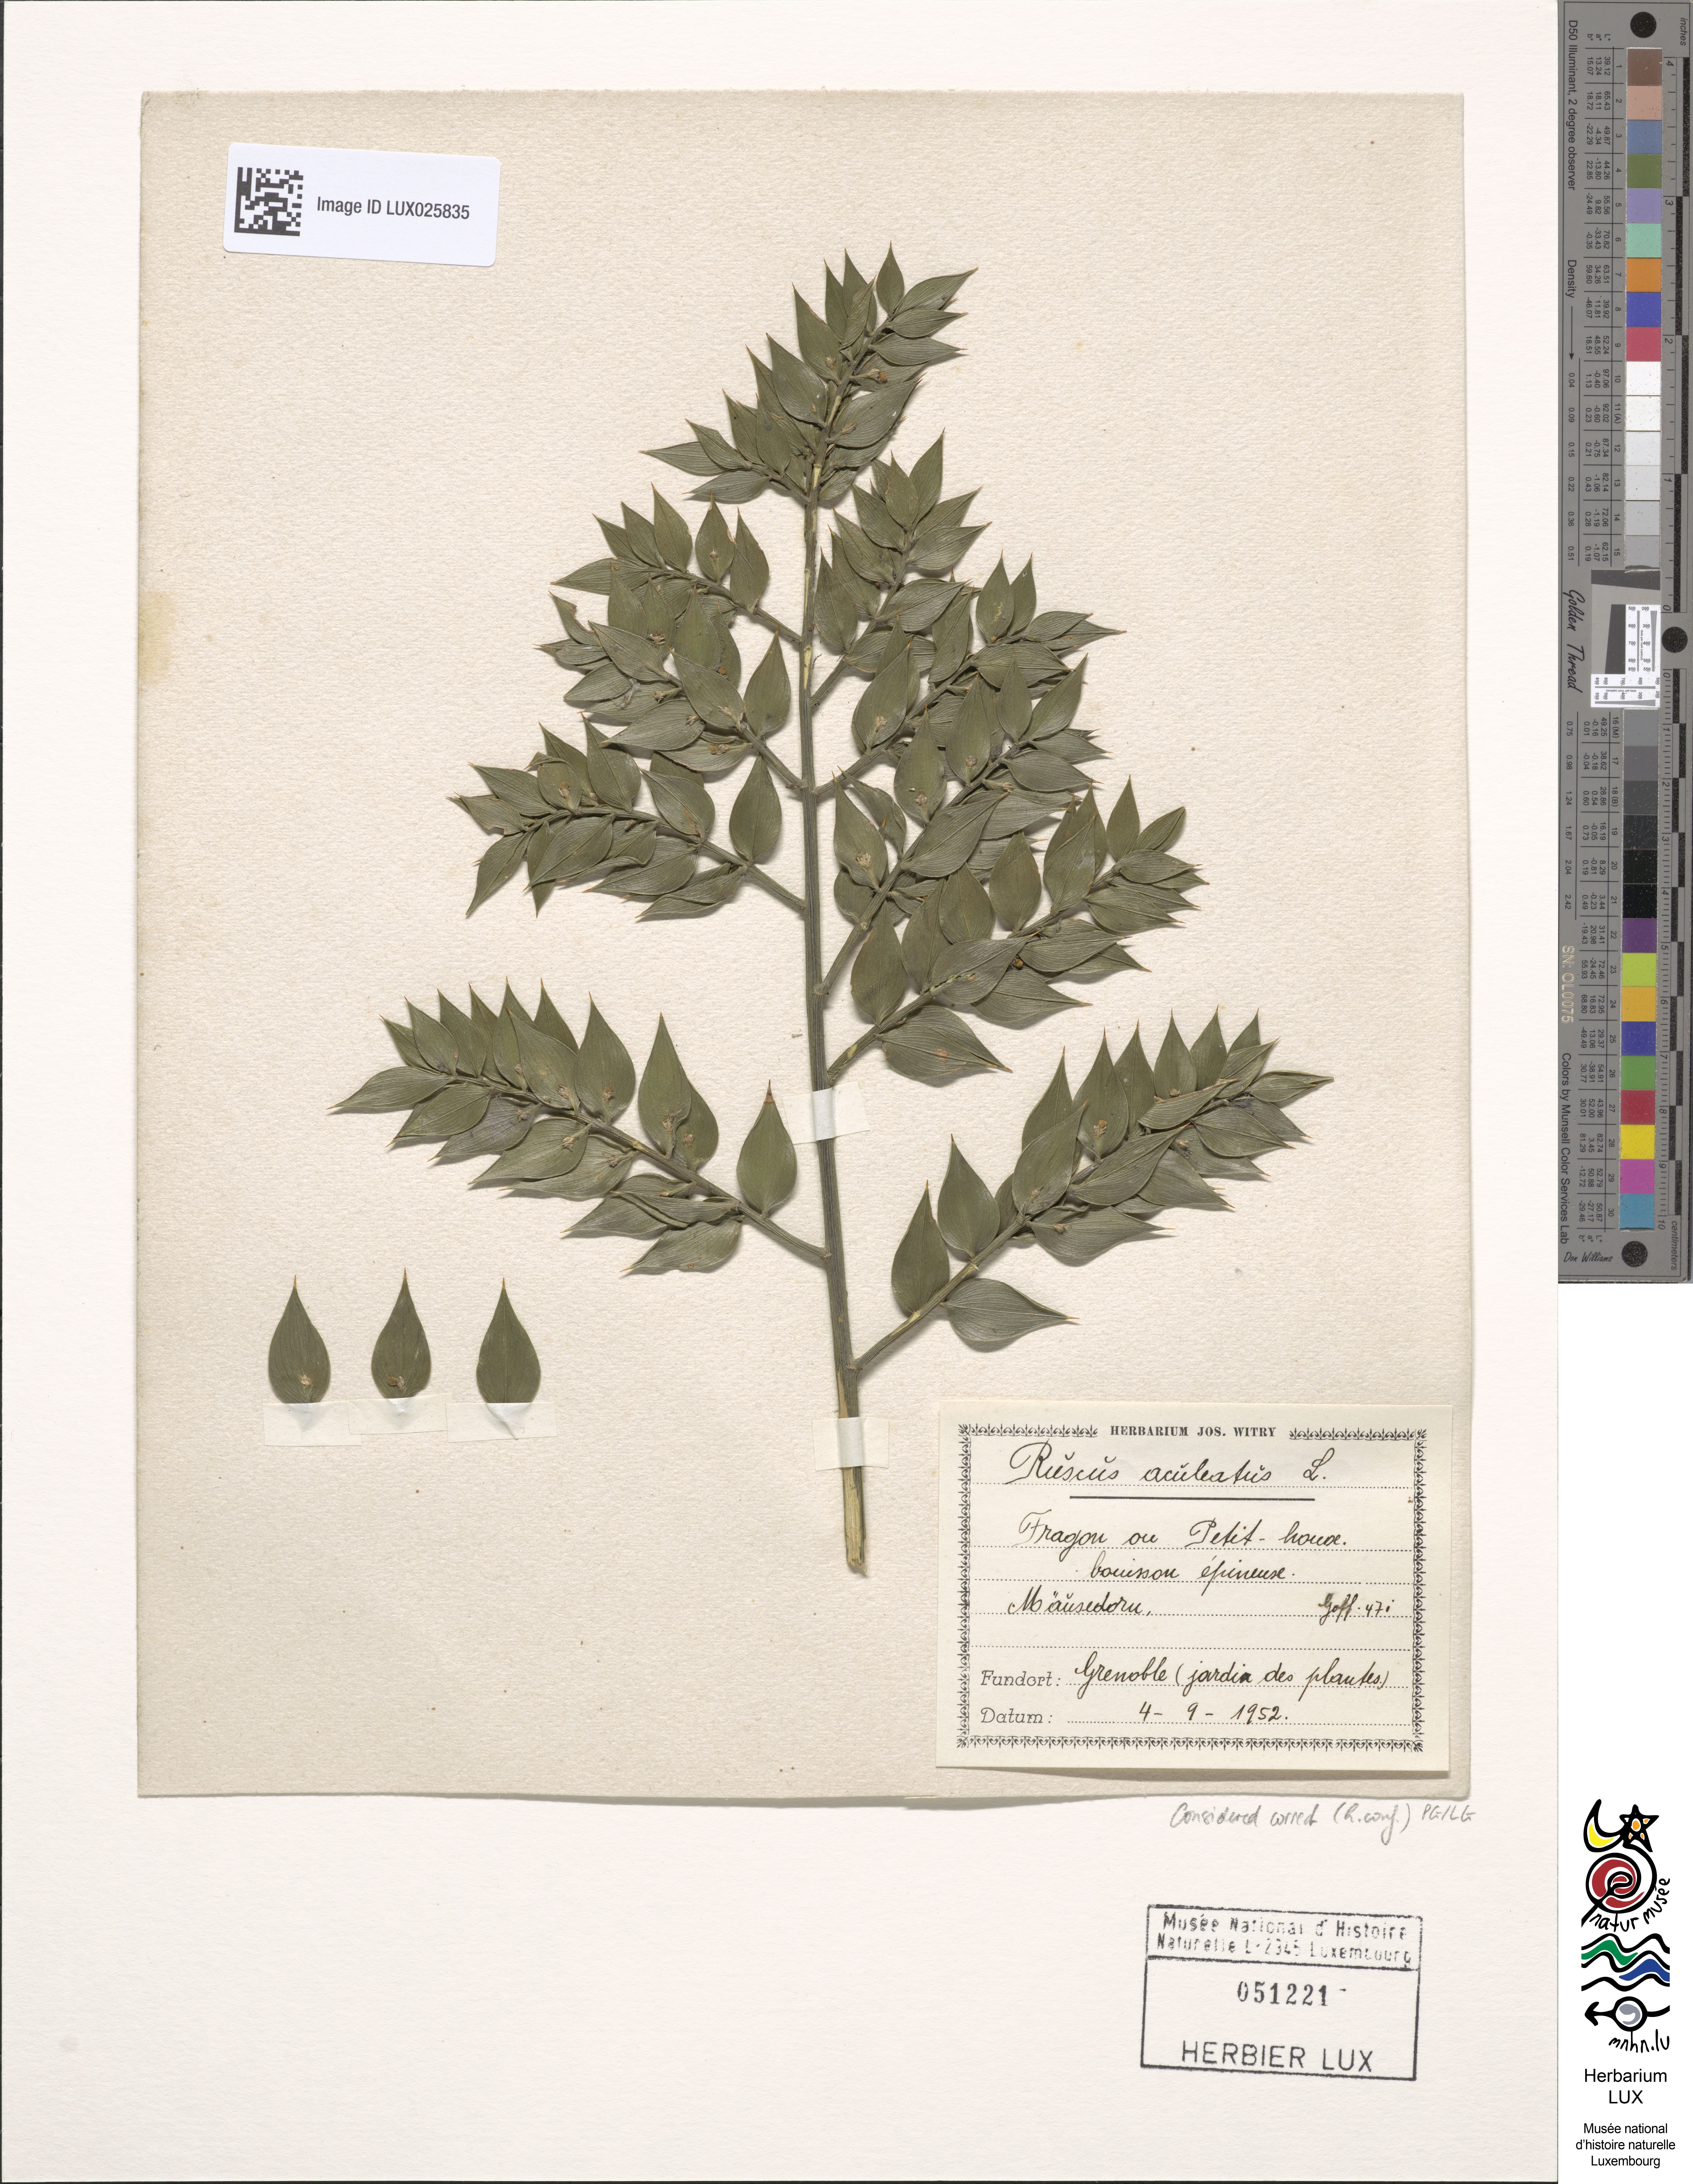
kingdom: Plantae
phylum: Tracheophyta
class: Liliopsida
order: Asparagales
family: Asparagaceae
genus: Ruscus
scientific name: Ruscus aculeatus
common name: Butcher's-broom
